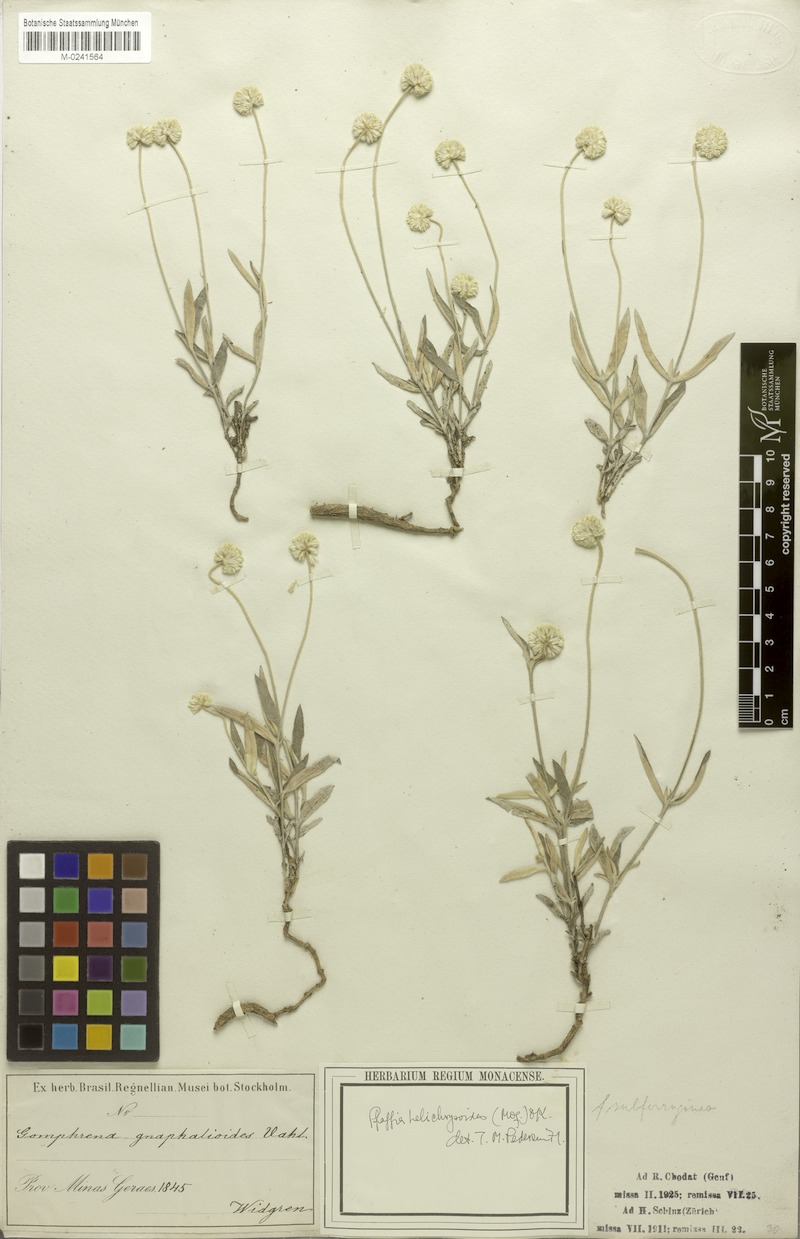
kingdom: Plantae
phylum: Tracheophyta
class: Magnoliopsida
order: Caryophyllales
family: Amaranthaceae
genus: Pfaffia
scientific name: Pfaffia gnaphalioides
